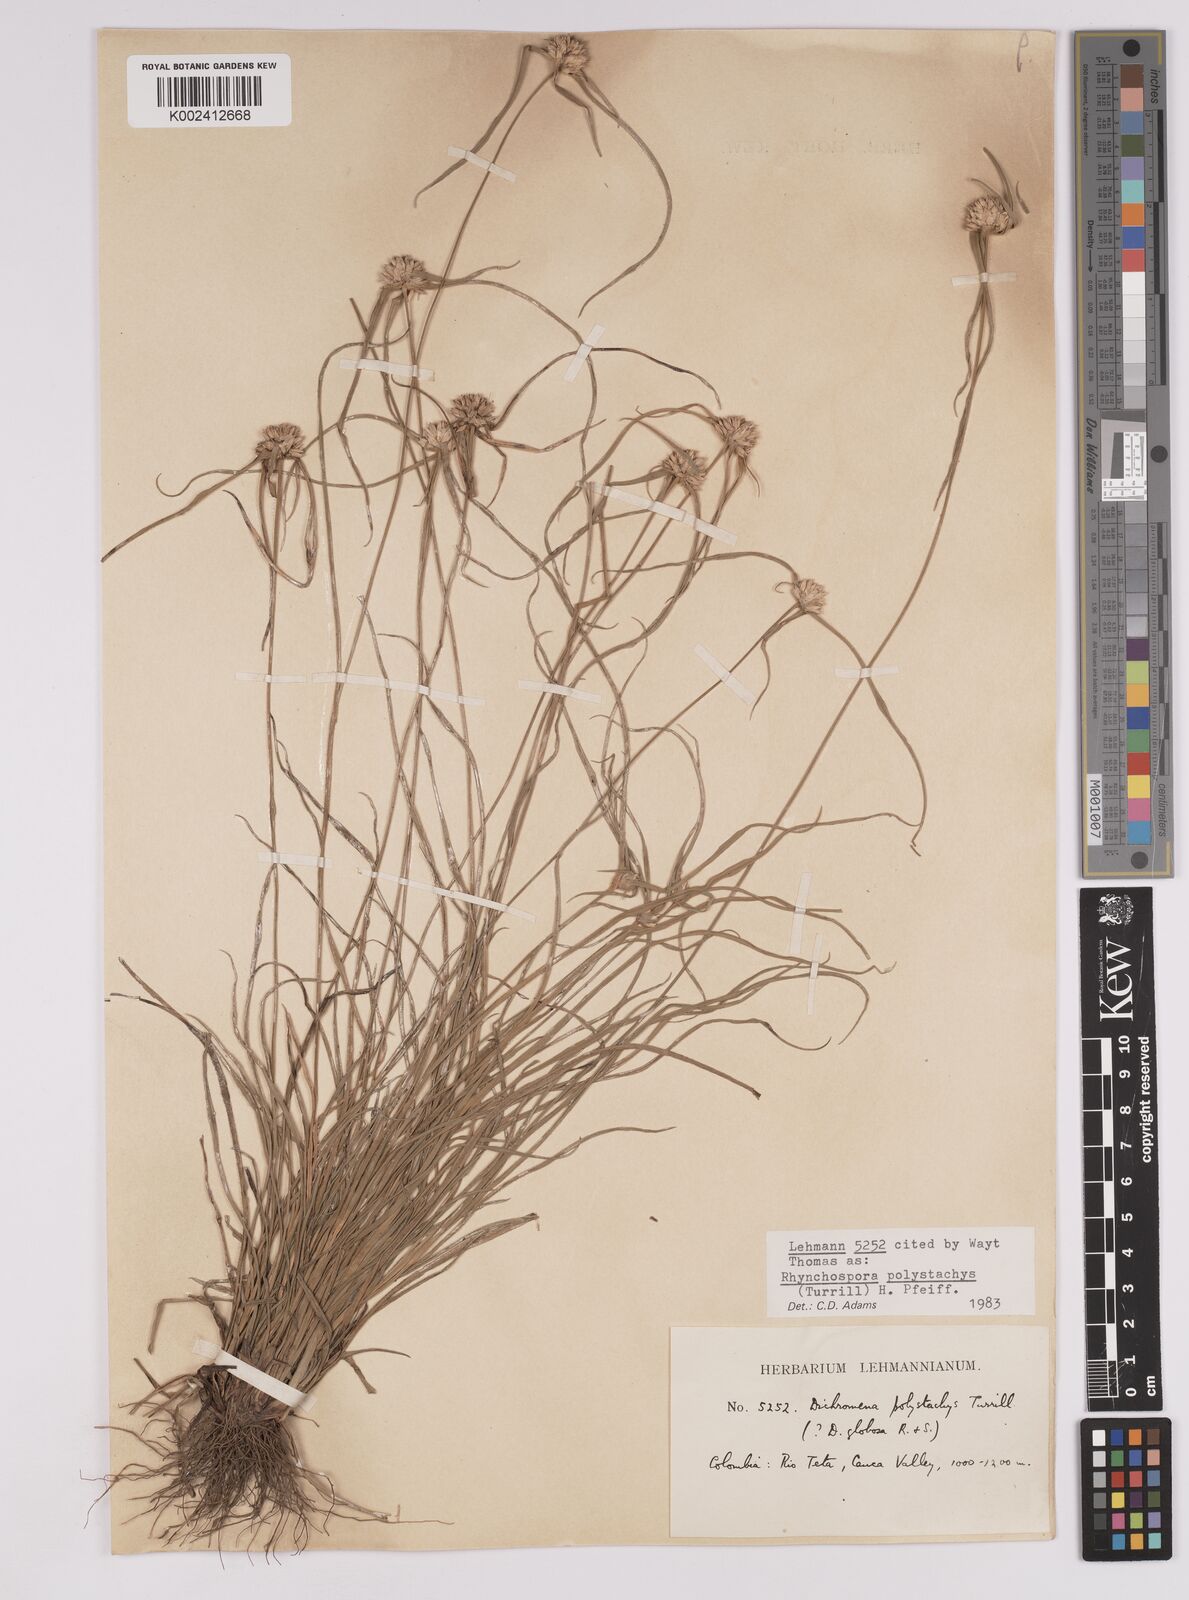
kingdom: Plantae
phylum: Tracheophyta
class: Liliopsida
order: Poales
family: Cyperaceae
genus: Rhynchospora
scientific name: Rhynchospora polystachys
